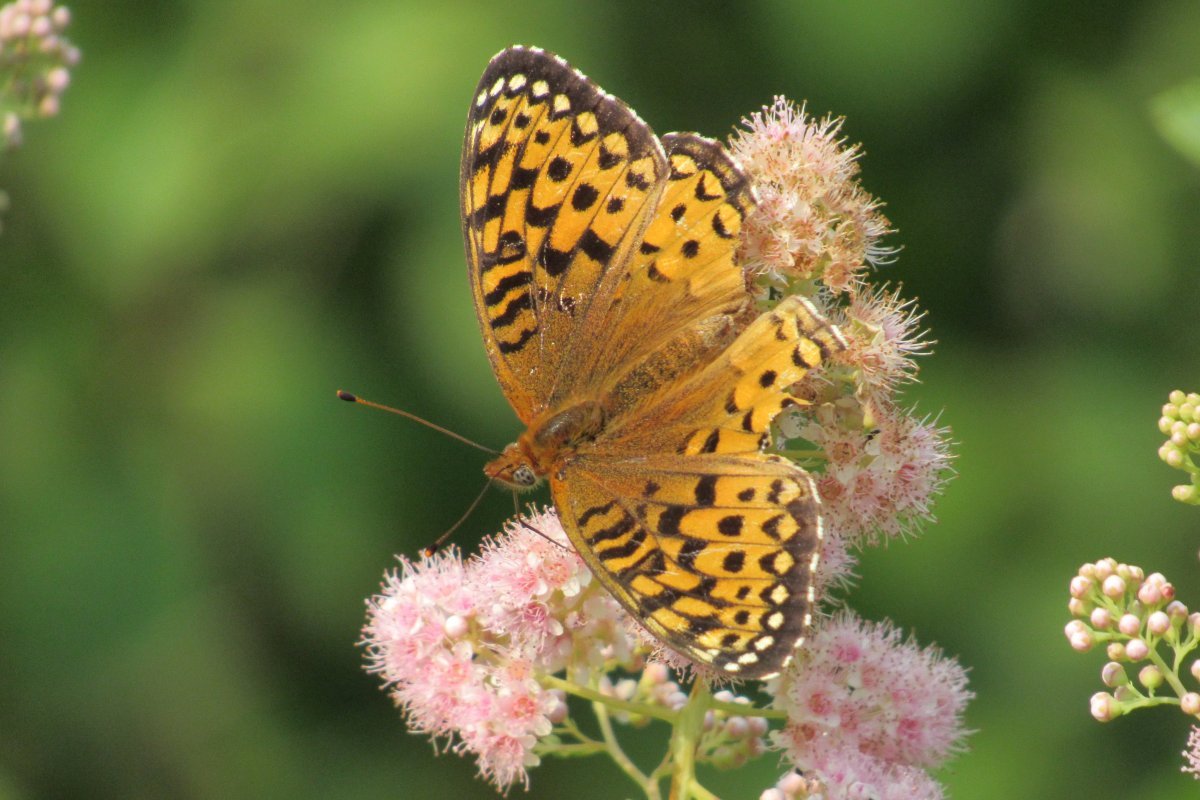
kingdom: Animalia
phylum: Arthropoda
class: Insecta
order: Lepidoptera
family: Nymphalidae
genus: Speyeria
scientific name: Speyeria aphrodite
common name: Aphrodite Fritillary
